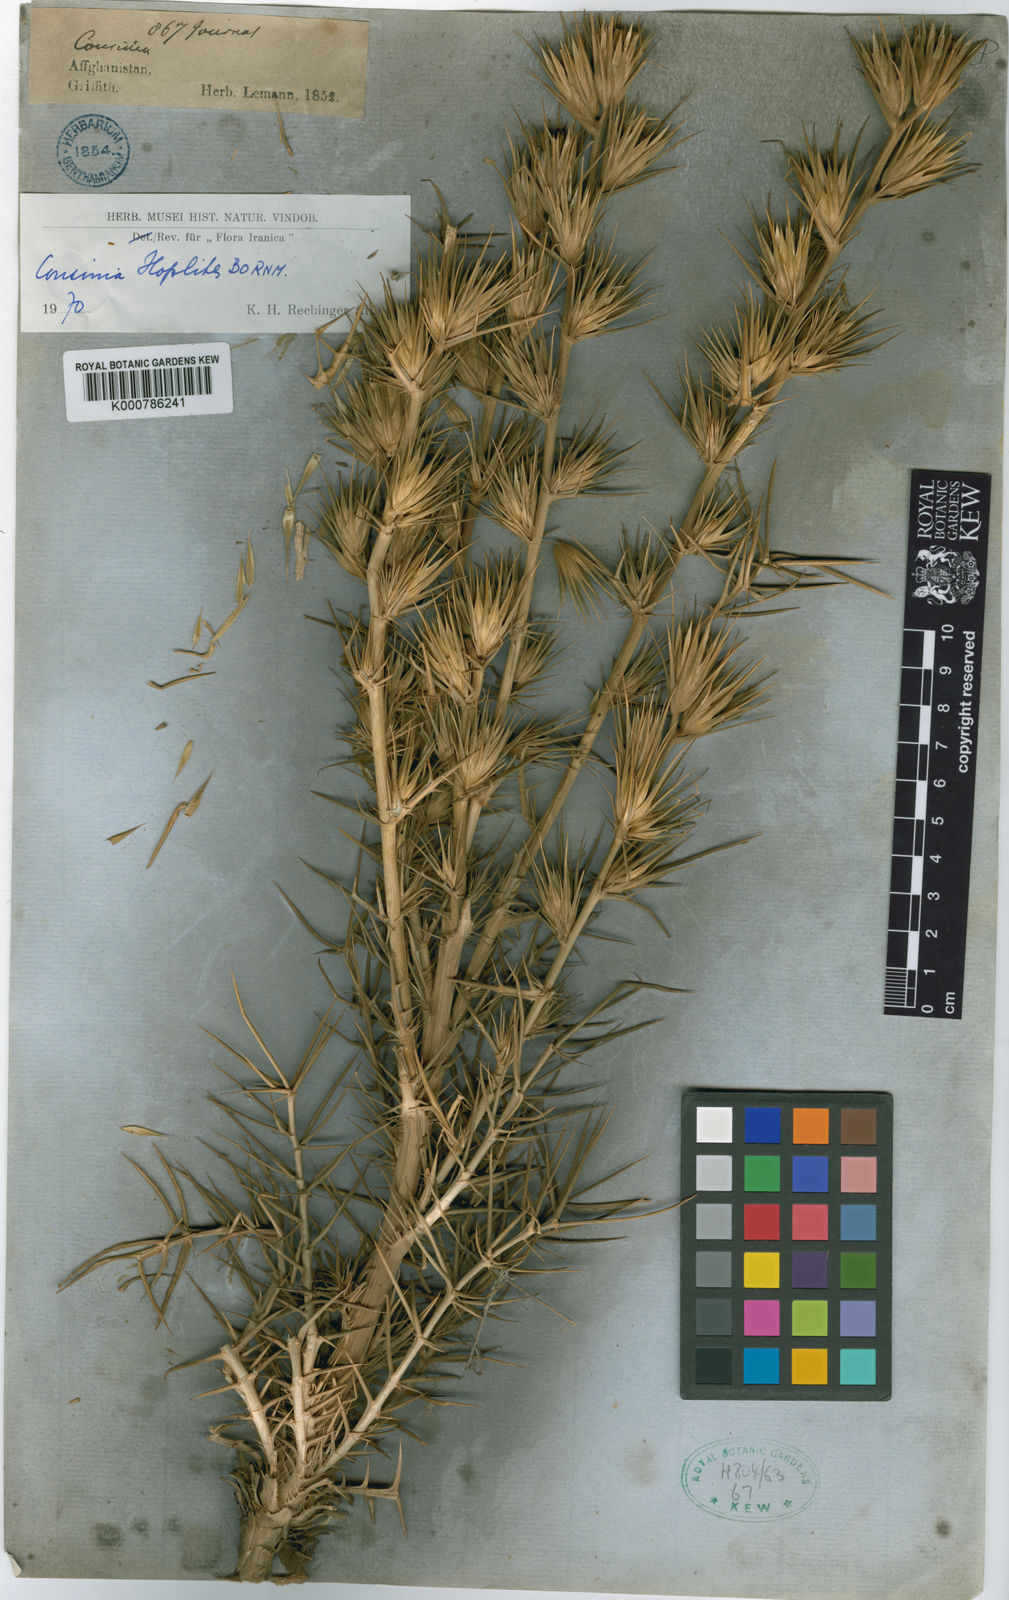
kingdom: Plantae
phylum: Tracheophyta
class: Magnoliopsida
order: Asterales
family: Asteraceae
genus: Cousinia
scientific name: Cousinia hoplites
